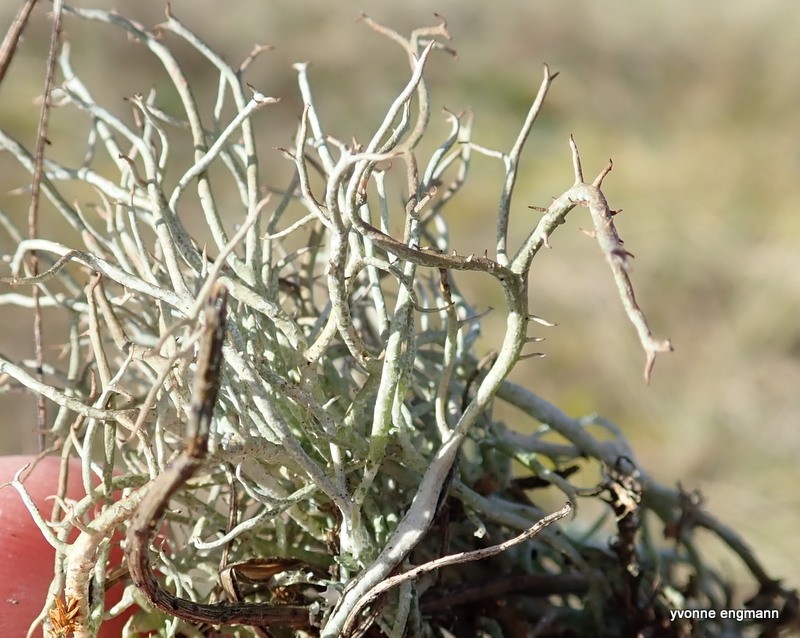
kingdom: Fungi
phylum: Ascomycota
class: Lecanoromycetes
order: Lecanorales
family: Cladoniaceae
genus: Cladonia
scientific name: Cladonia furcata
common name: kløftet bægerlav
